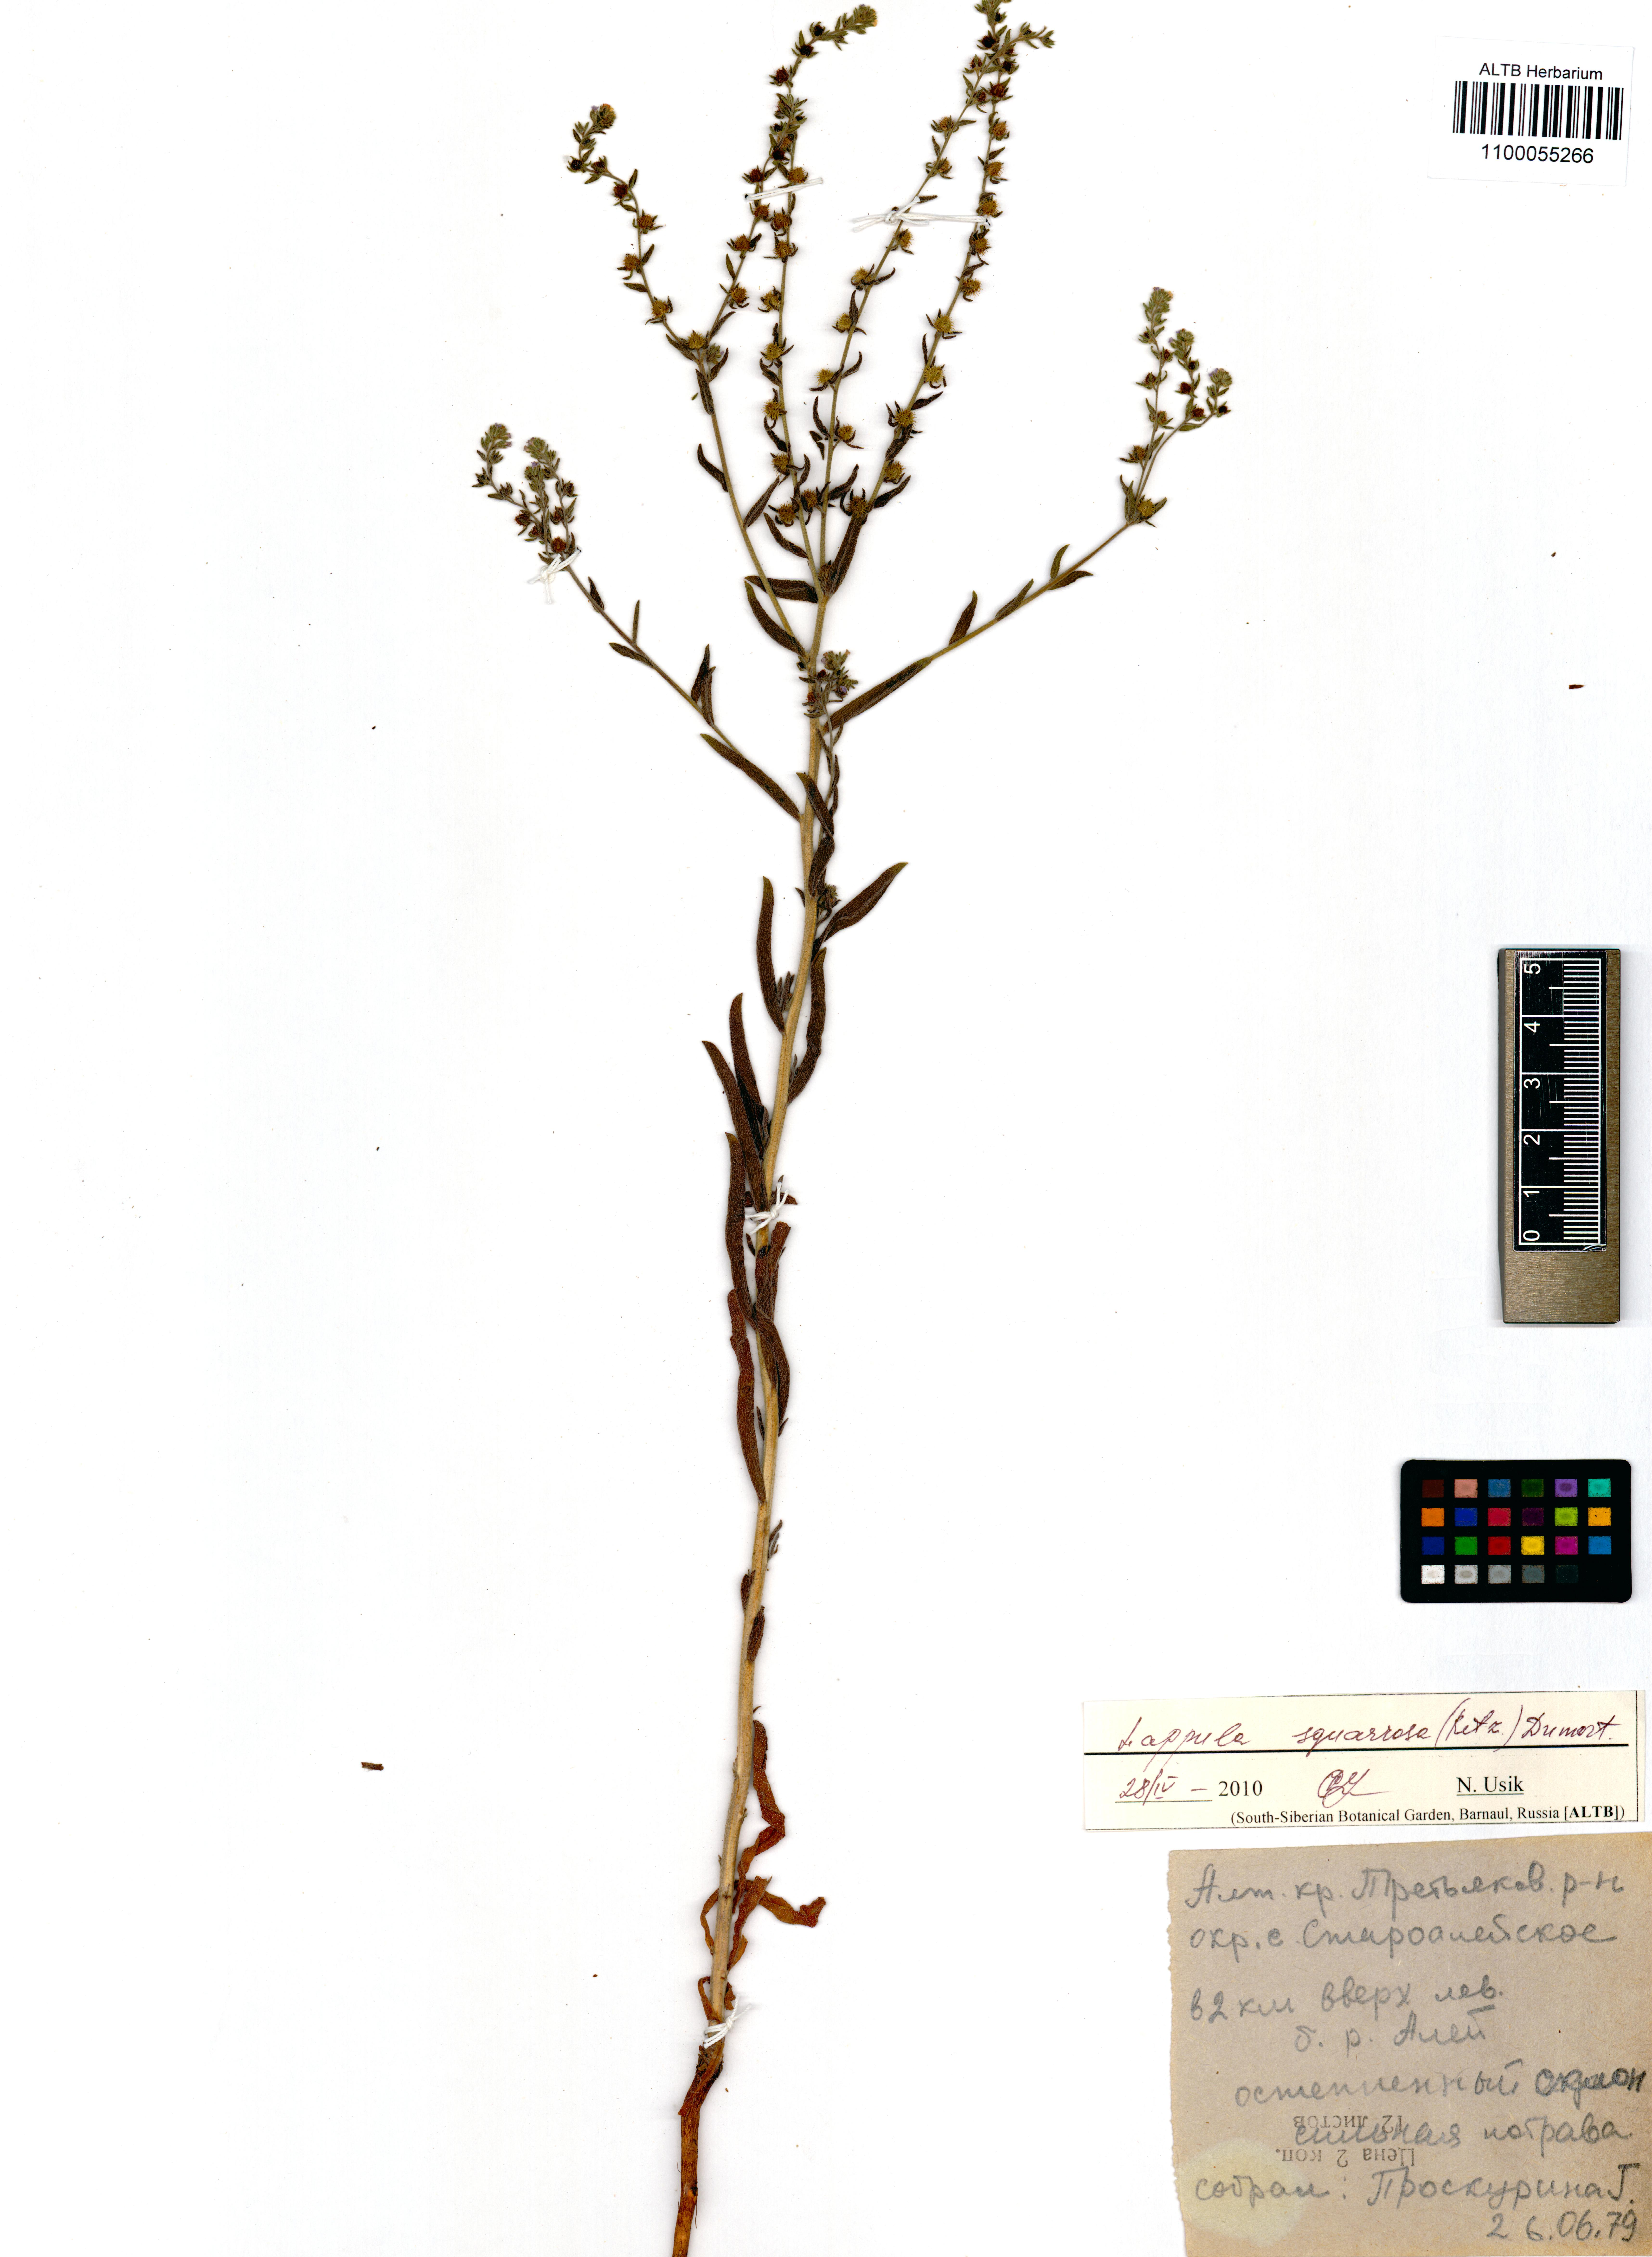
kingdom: Plantae
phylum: Tracheophyta
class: Magnoliopsida
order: Boraginales
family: Boraginaceae
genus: Lappula
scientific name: Lappula squarrosa
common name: European stickseed
